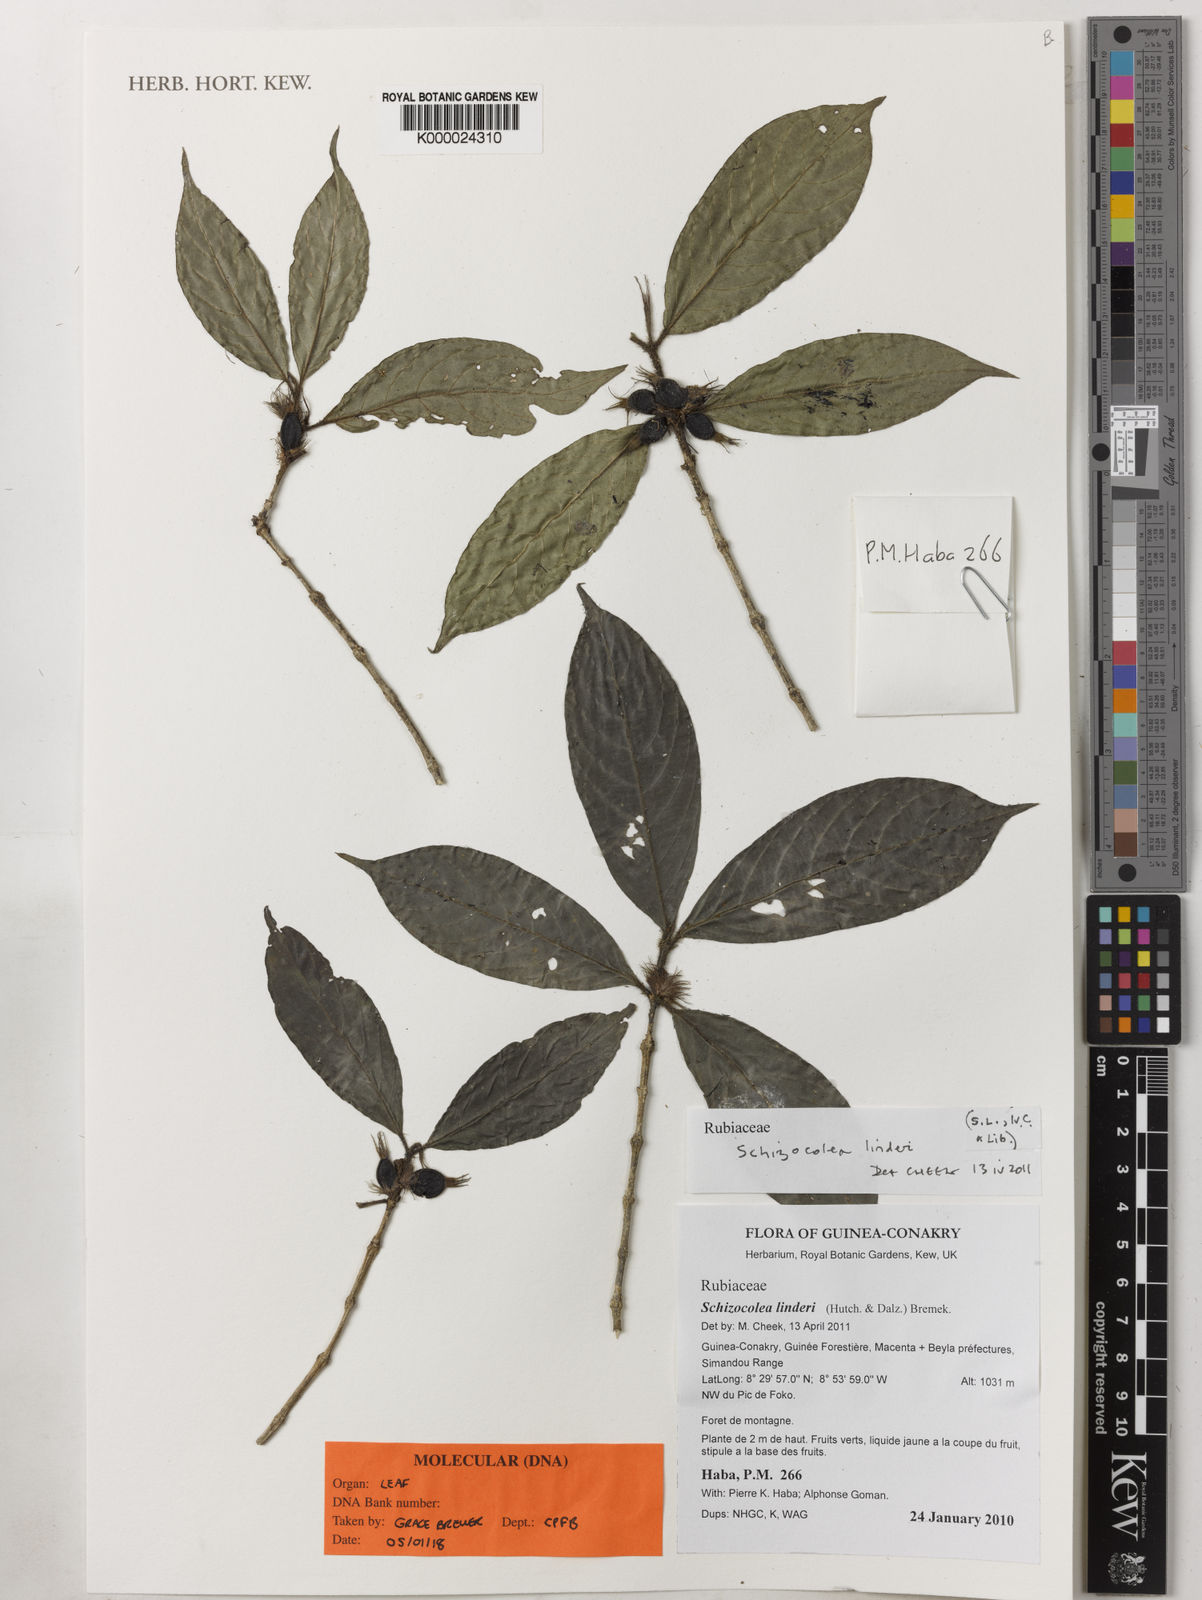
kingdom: Plantae
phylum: Tracheophyta
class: Magnoliopsida
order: Gentianales
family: Rubiaceae
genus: Schizocolea
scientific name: Schizocolea linderi
